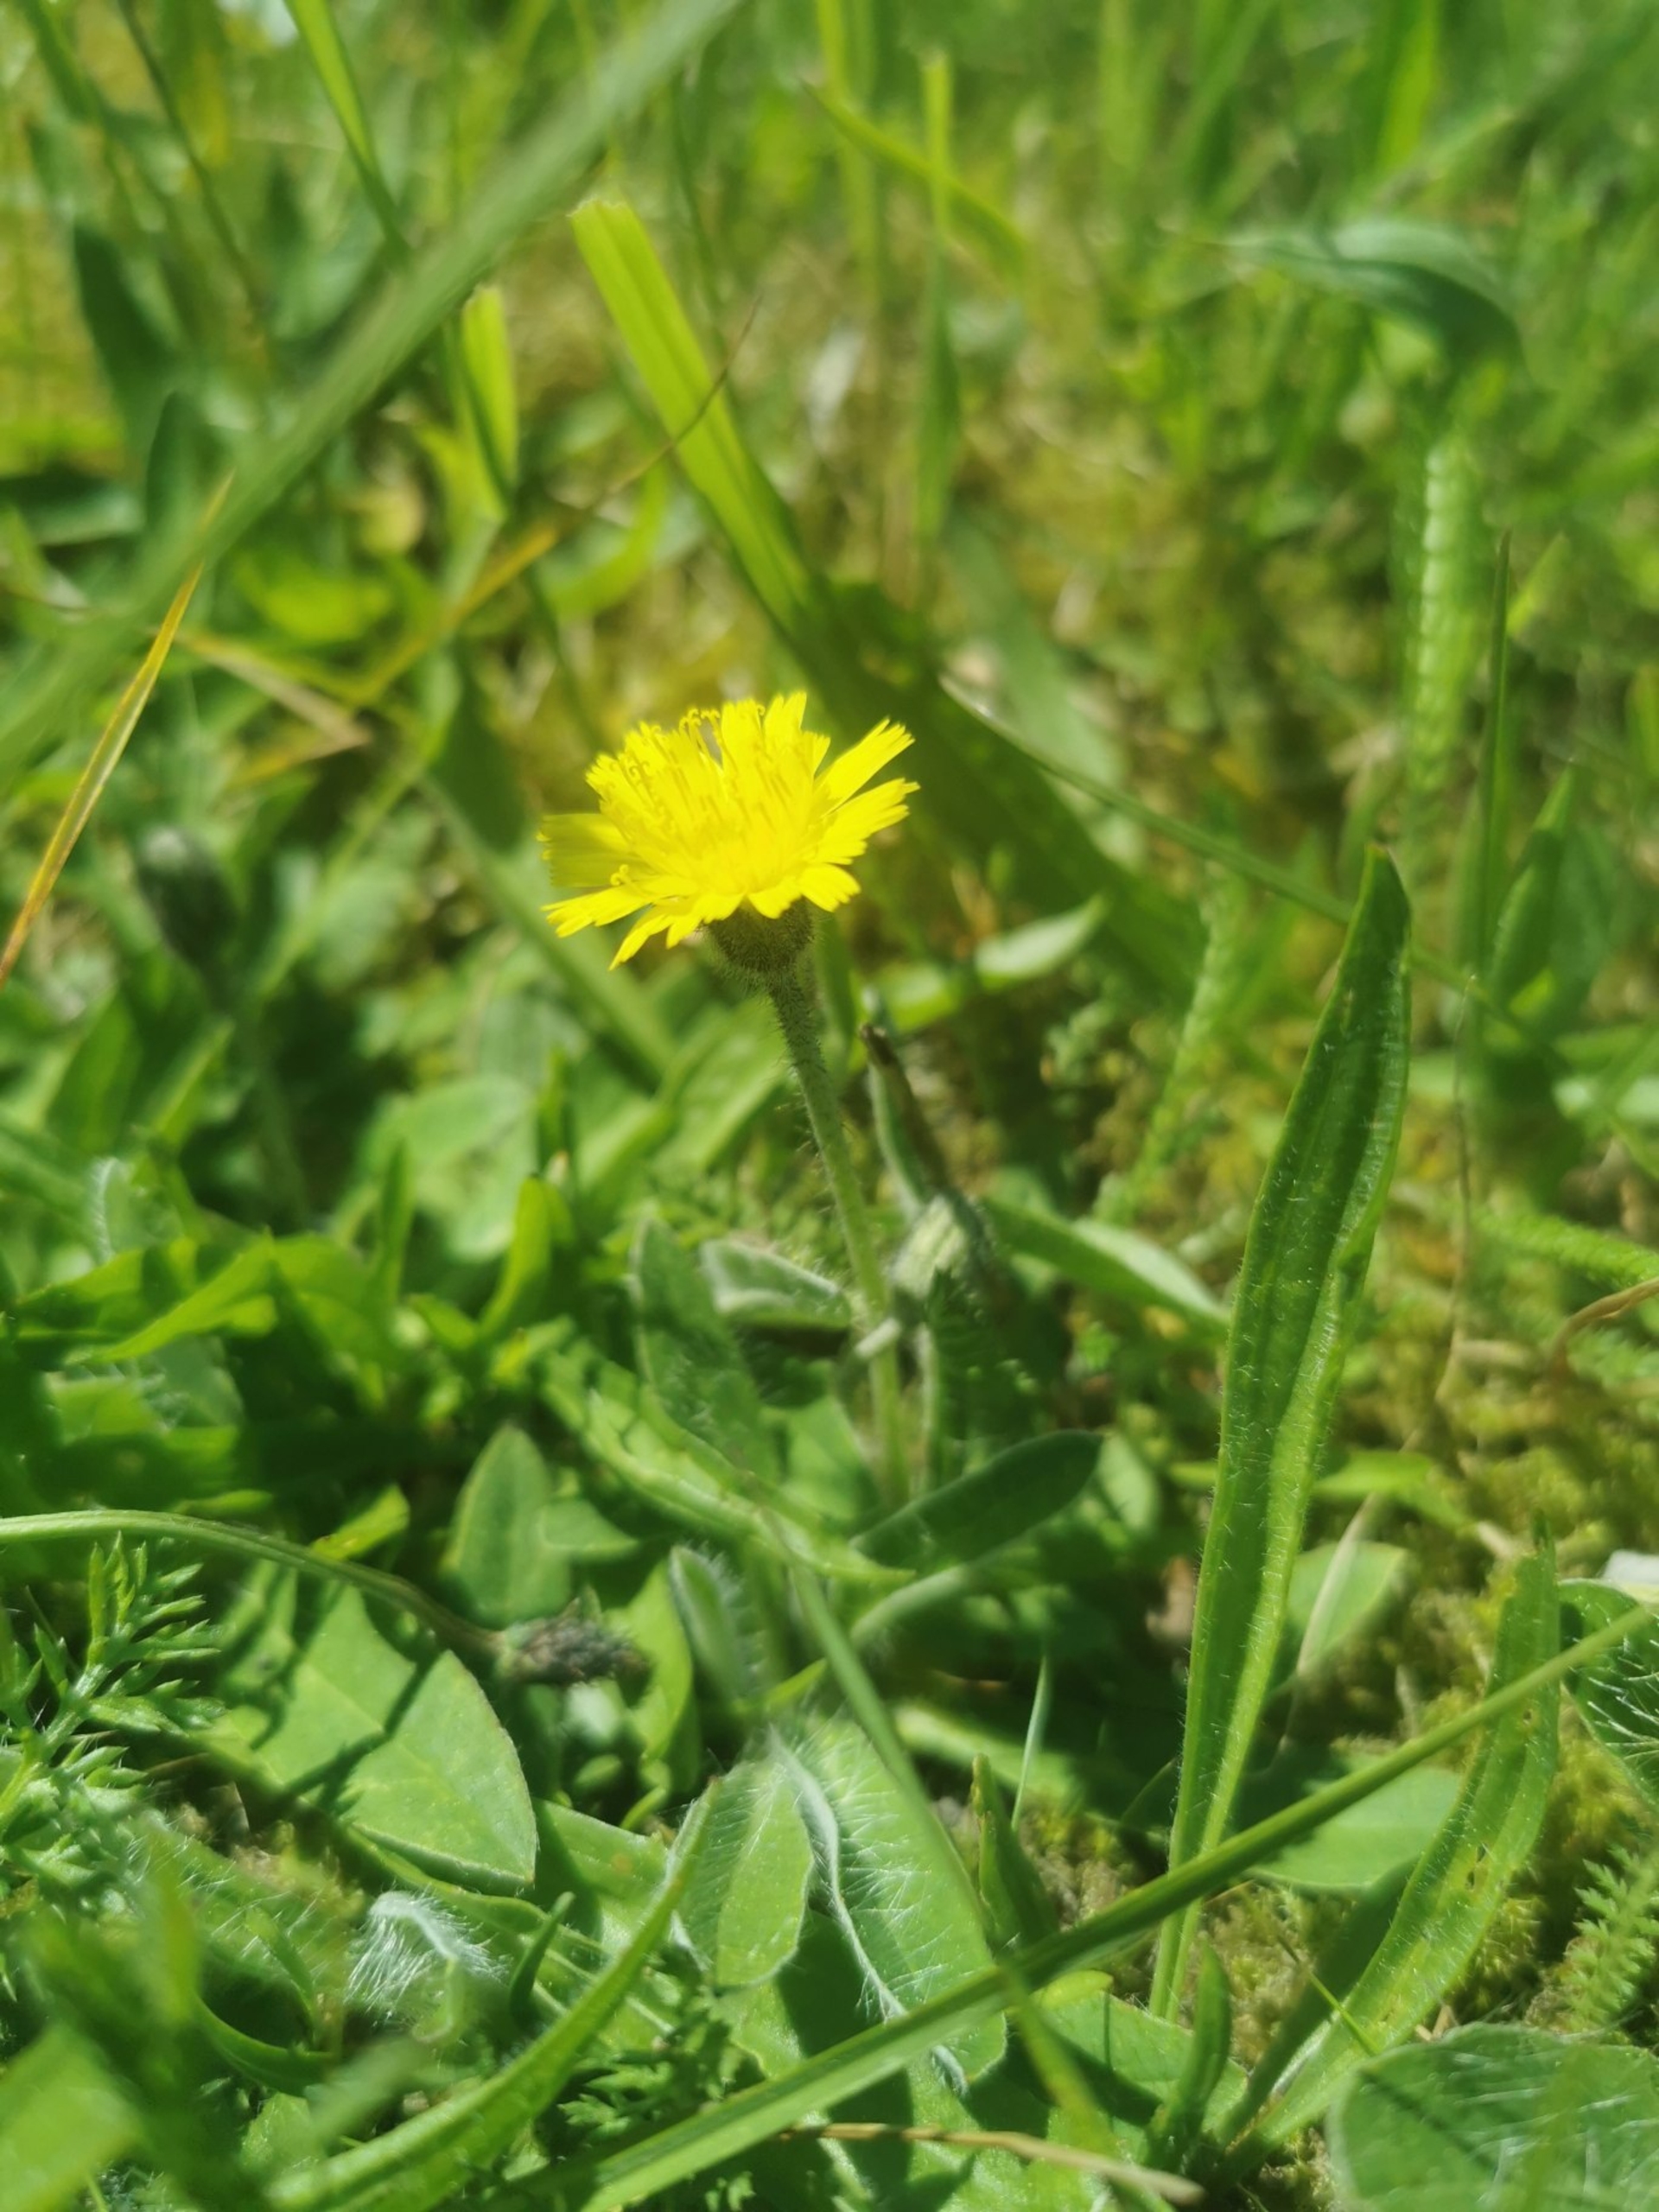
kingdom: Plantae
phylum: Tracheophyta
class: Magnoliopsida
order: Asterales
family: Asteraceae
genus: Pilosella
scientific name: Pilosella officinarum
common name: Håret høgeurt
